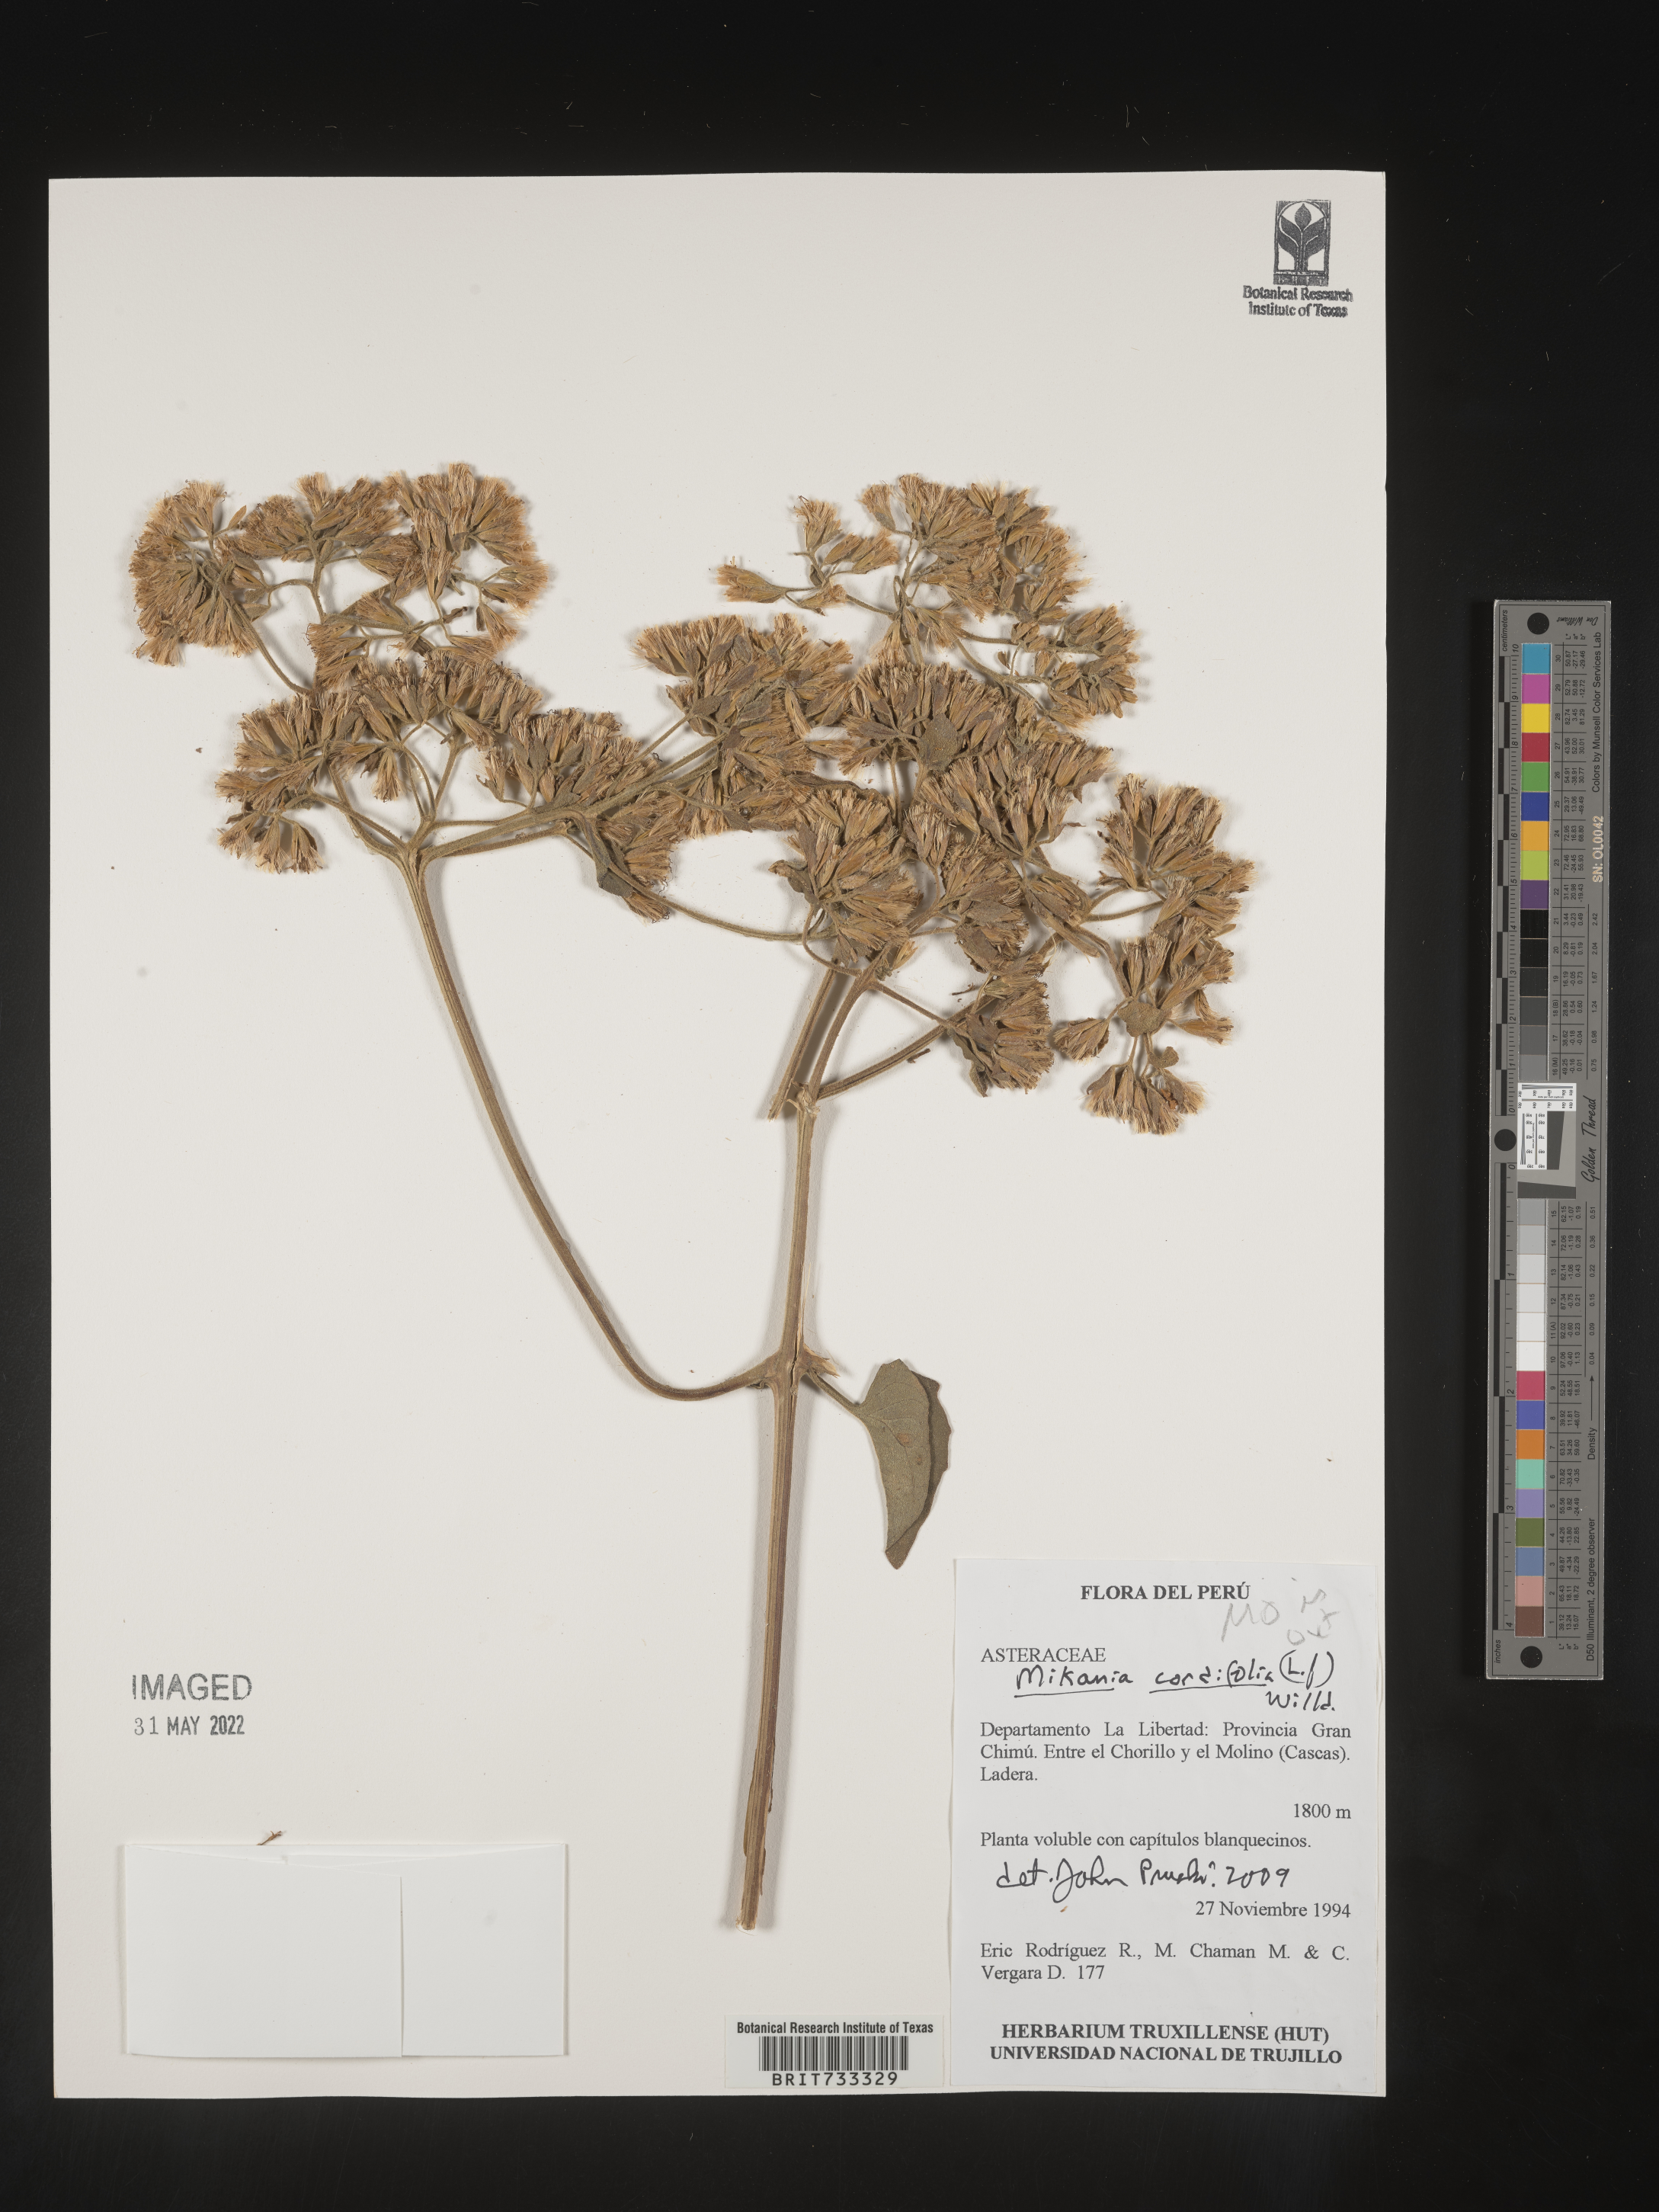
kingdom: Plantae
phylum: Tracheophyta
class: Magnoliopsida
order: Asterales
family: Asteraceae
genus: Mikania
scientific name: Mikania
